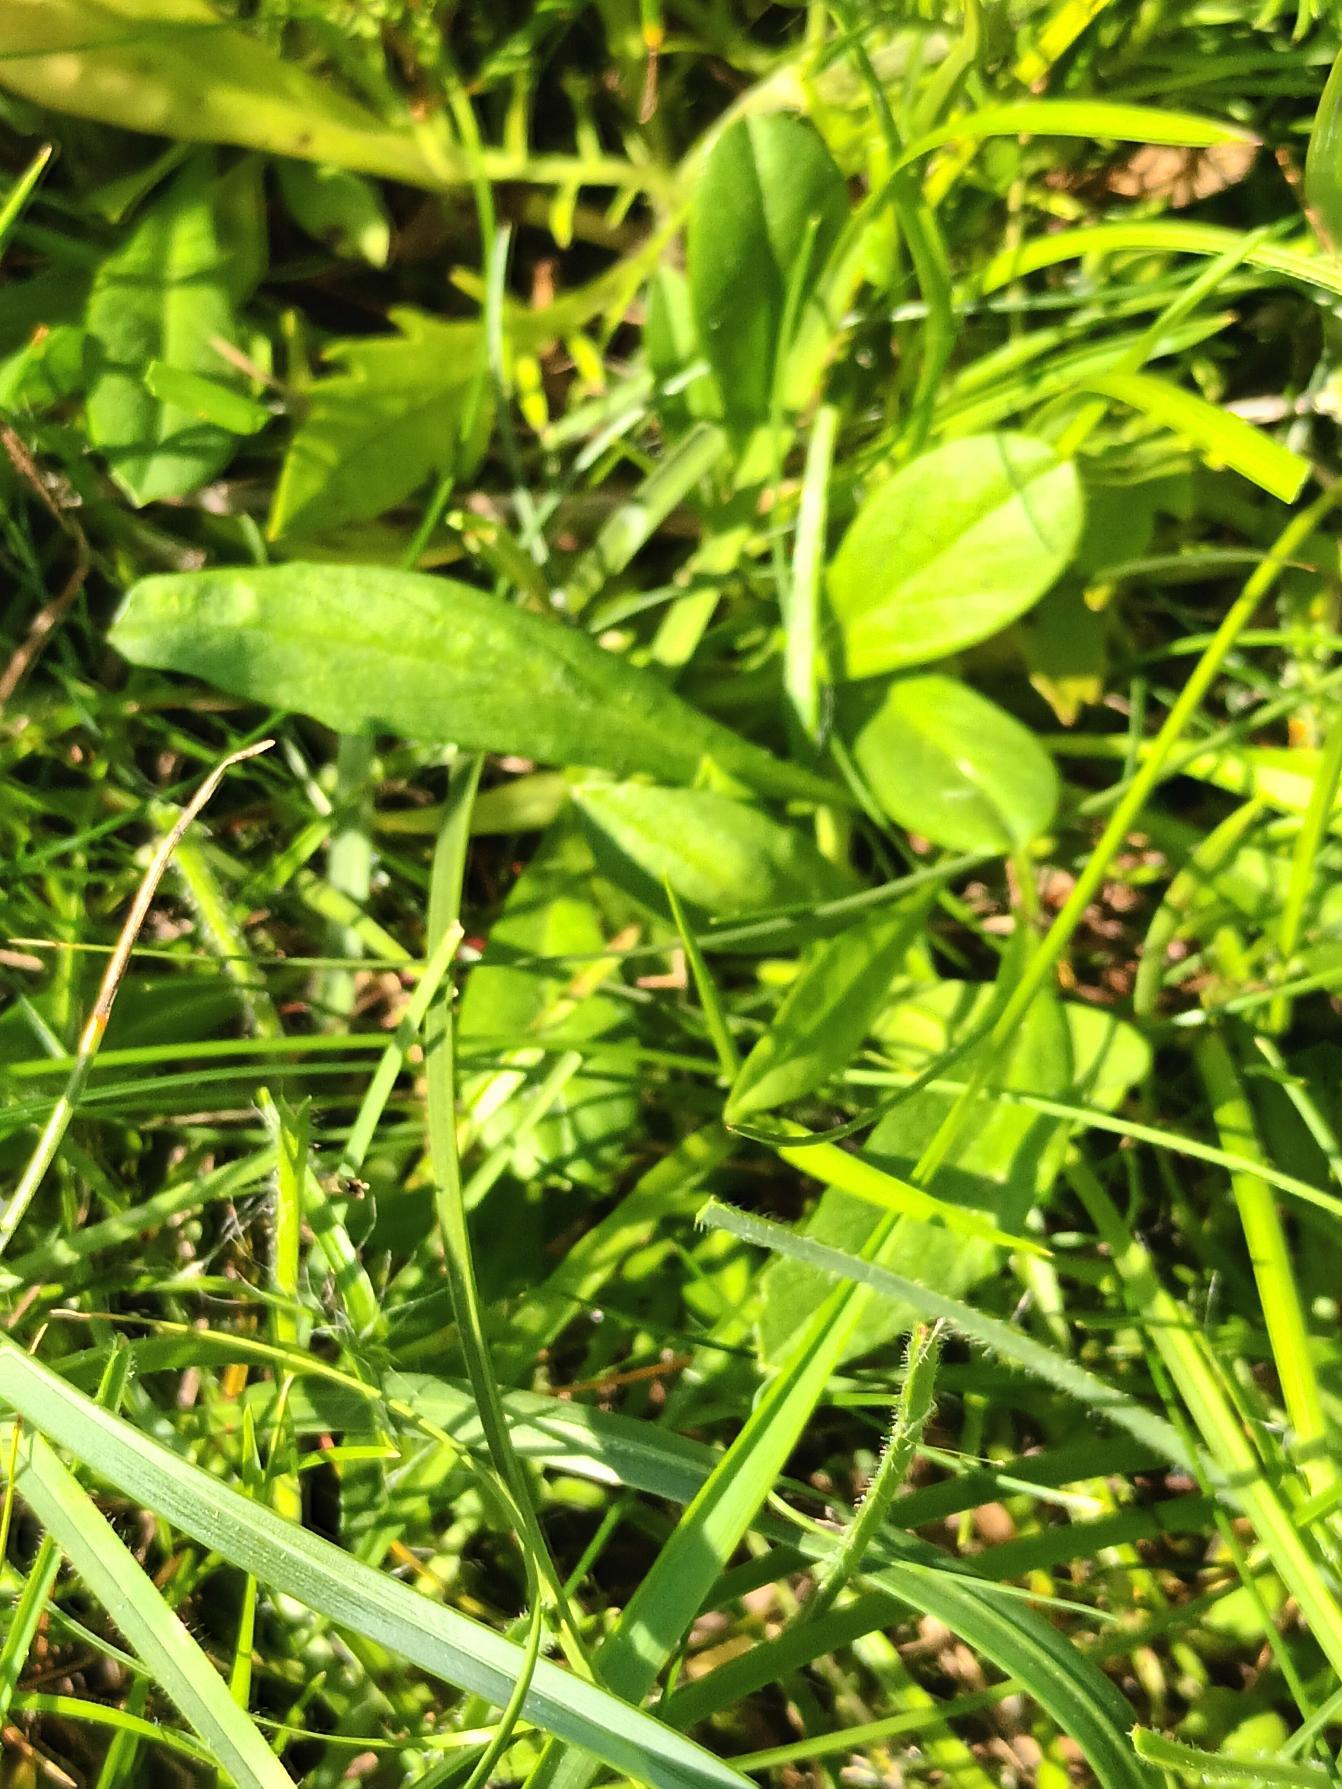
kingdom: Plantae
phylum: Tracheophyta
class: Magnoliopsida
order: Dipsacales
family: Caprifoliaceae
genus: Scabiosa
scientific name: Scabiosa canescens
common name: Vellugtende skabiose
